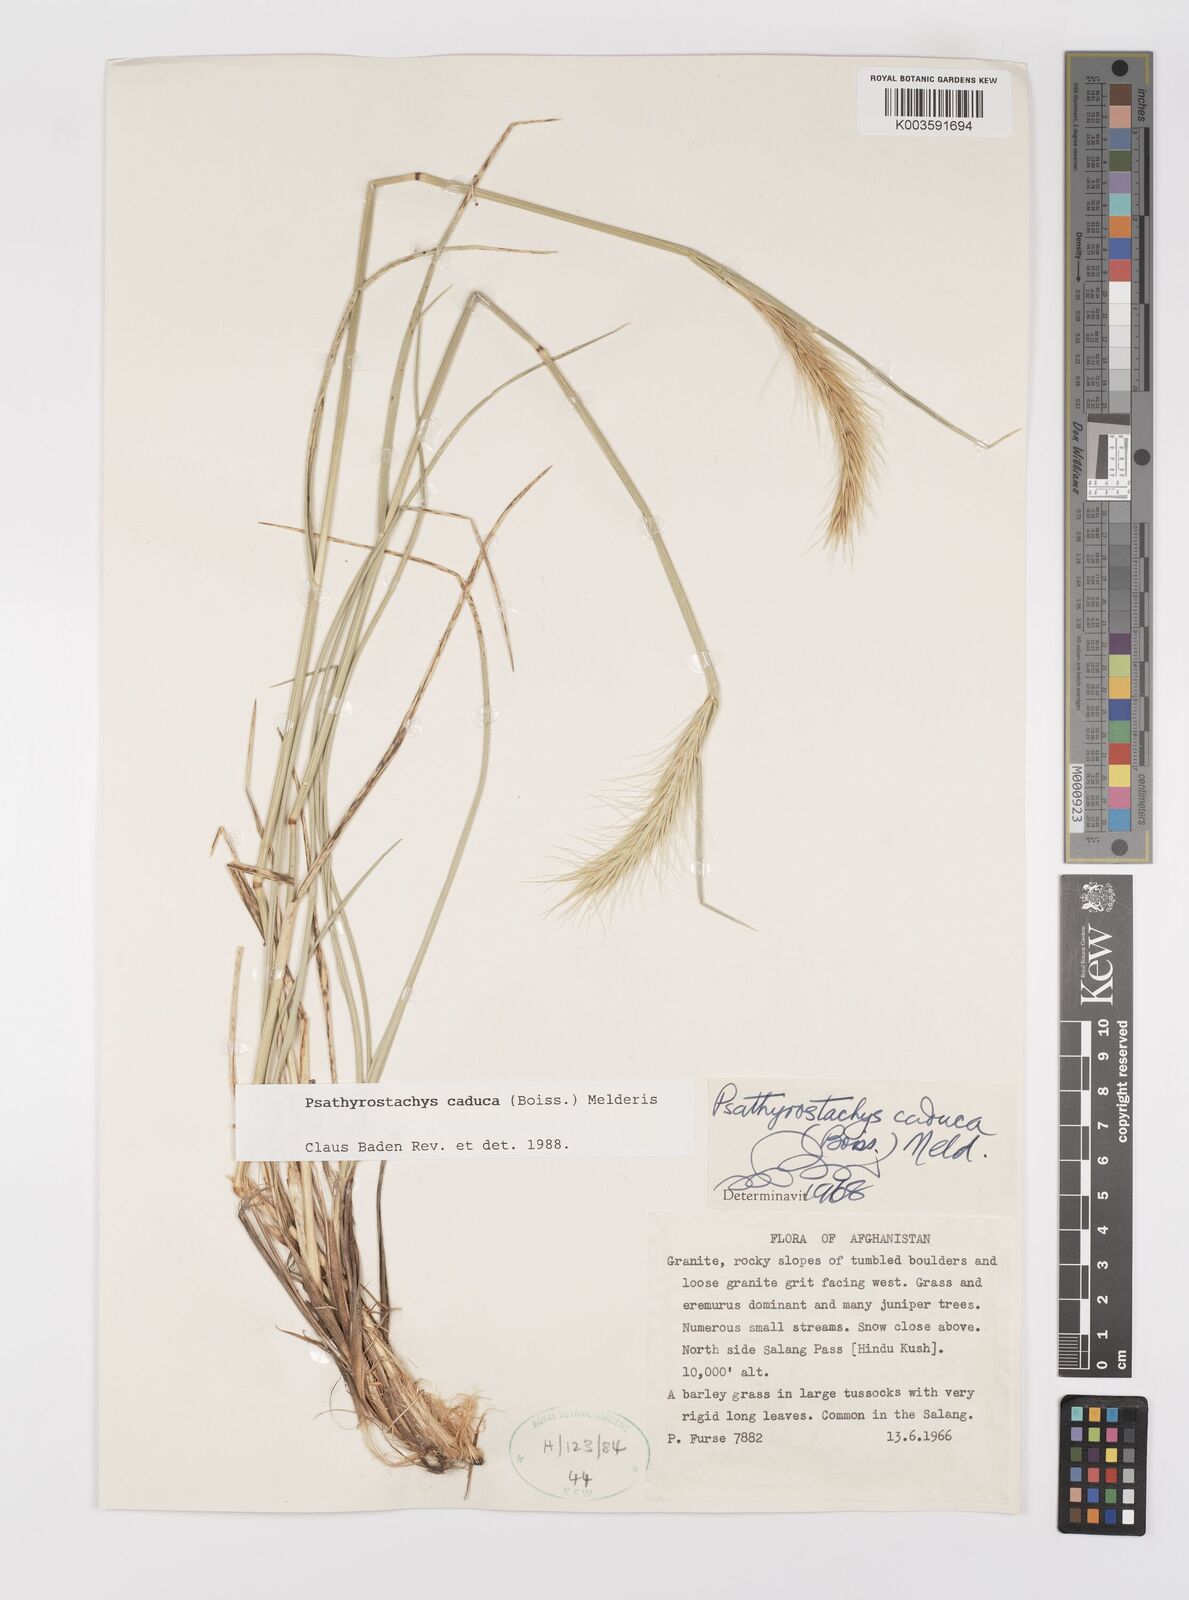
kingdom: Plantae
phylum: Tracheophyta
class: Liliopsida
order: Poales
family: Poaceae
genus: Psathyrostachys
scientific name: Psathyrostachys caduca
